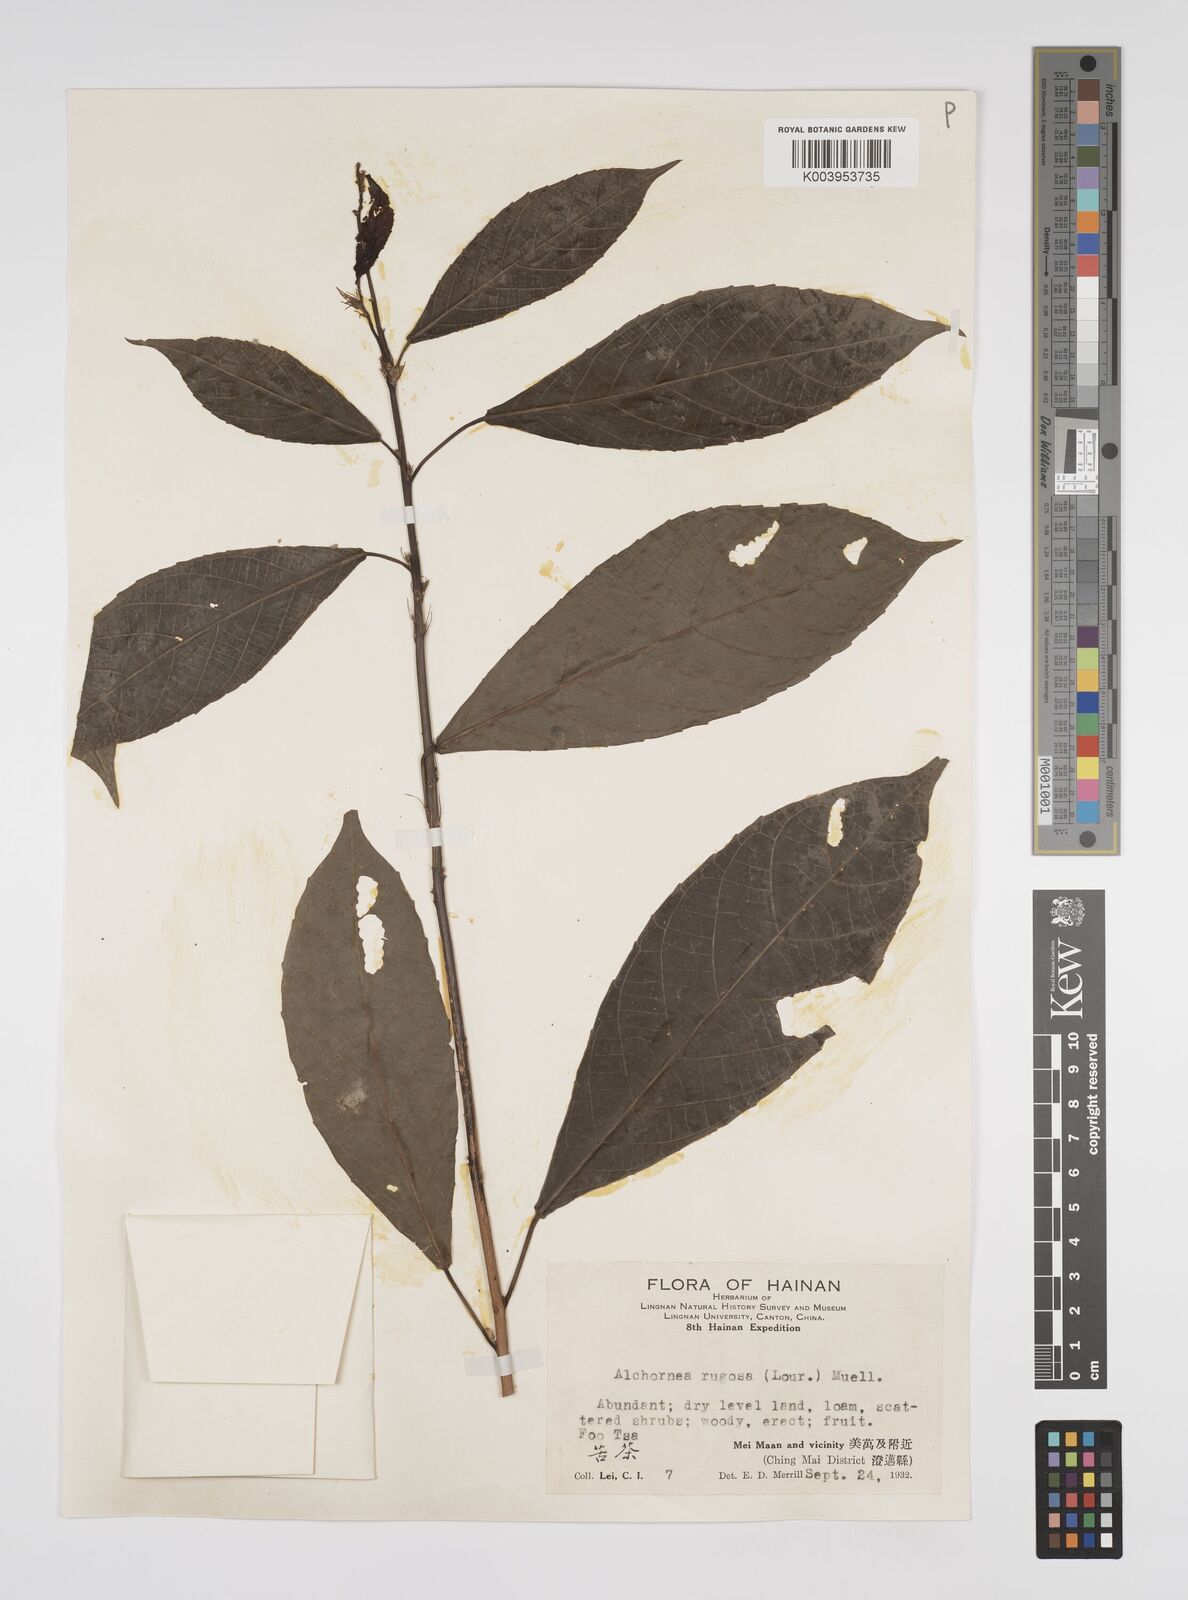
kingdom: Plantae
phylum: Tracheophyta
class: Magnoliopsida
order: Malpighiales
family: Euphorbiaceae
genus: Alchornea
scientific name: Alchornea rugosa
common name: Alchorntree
